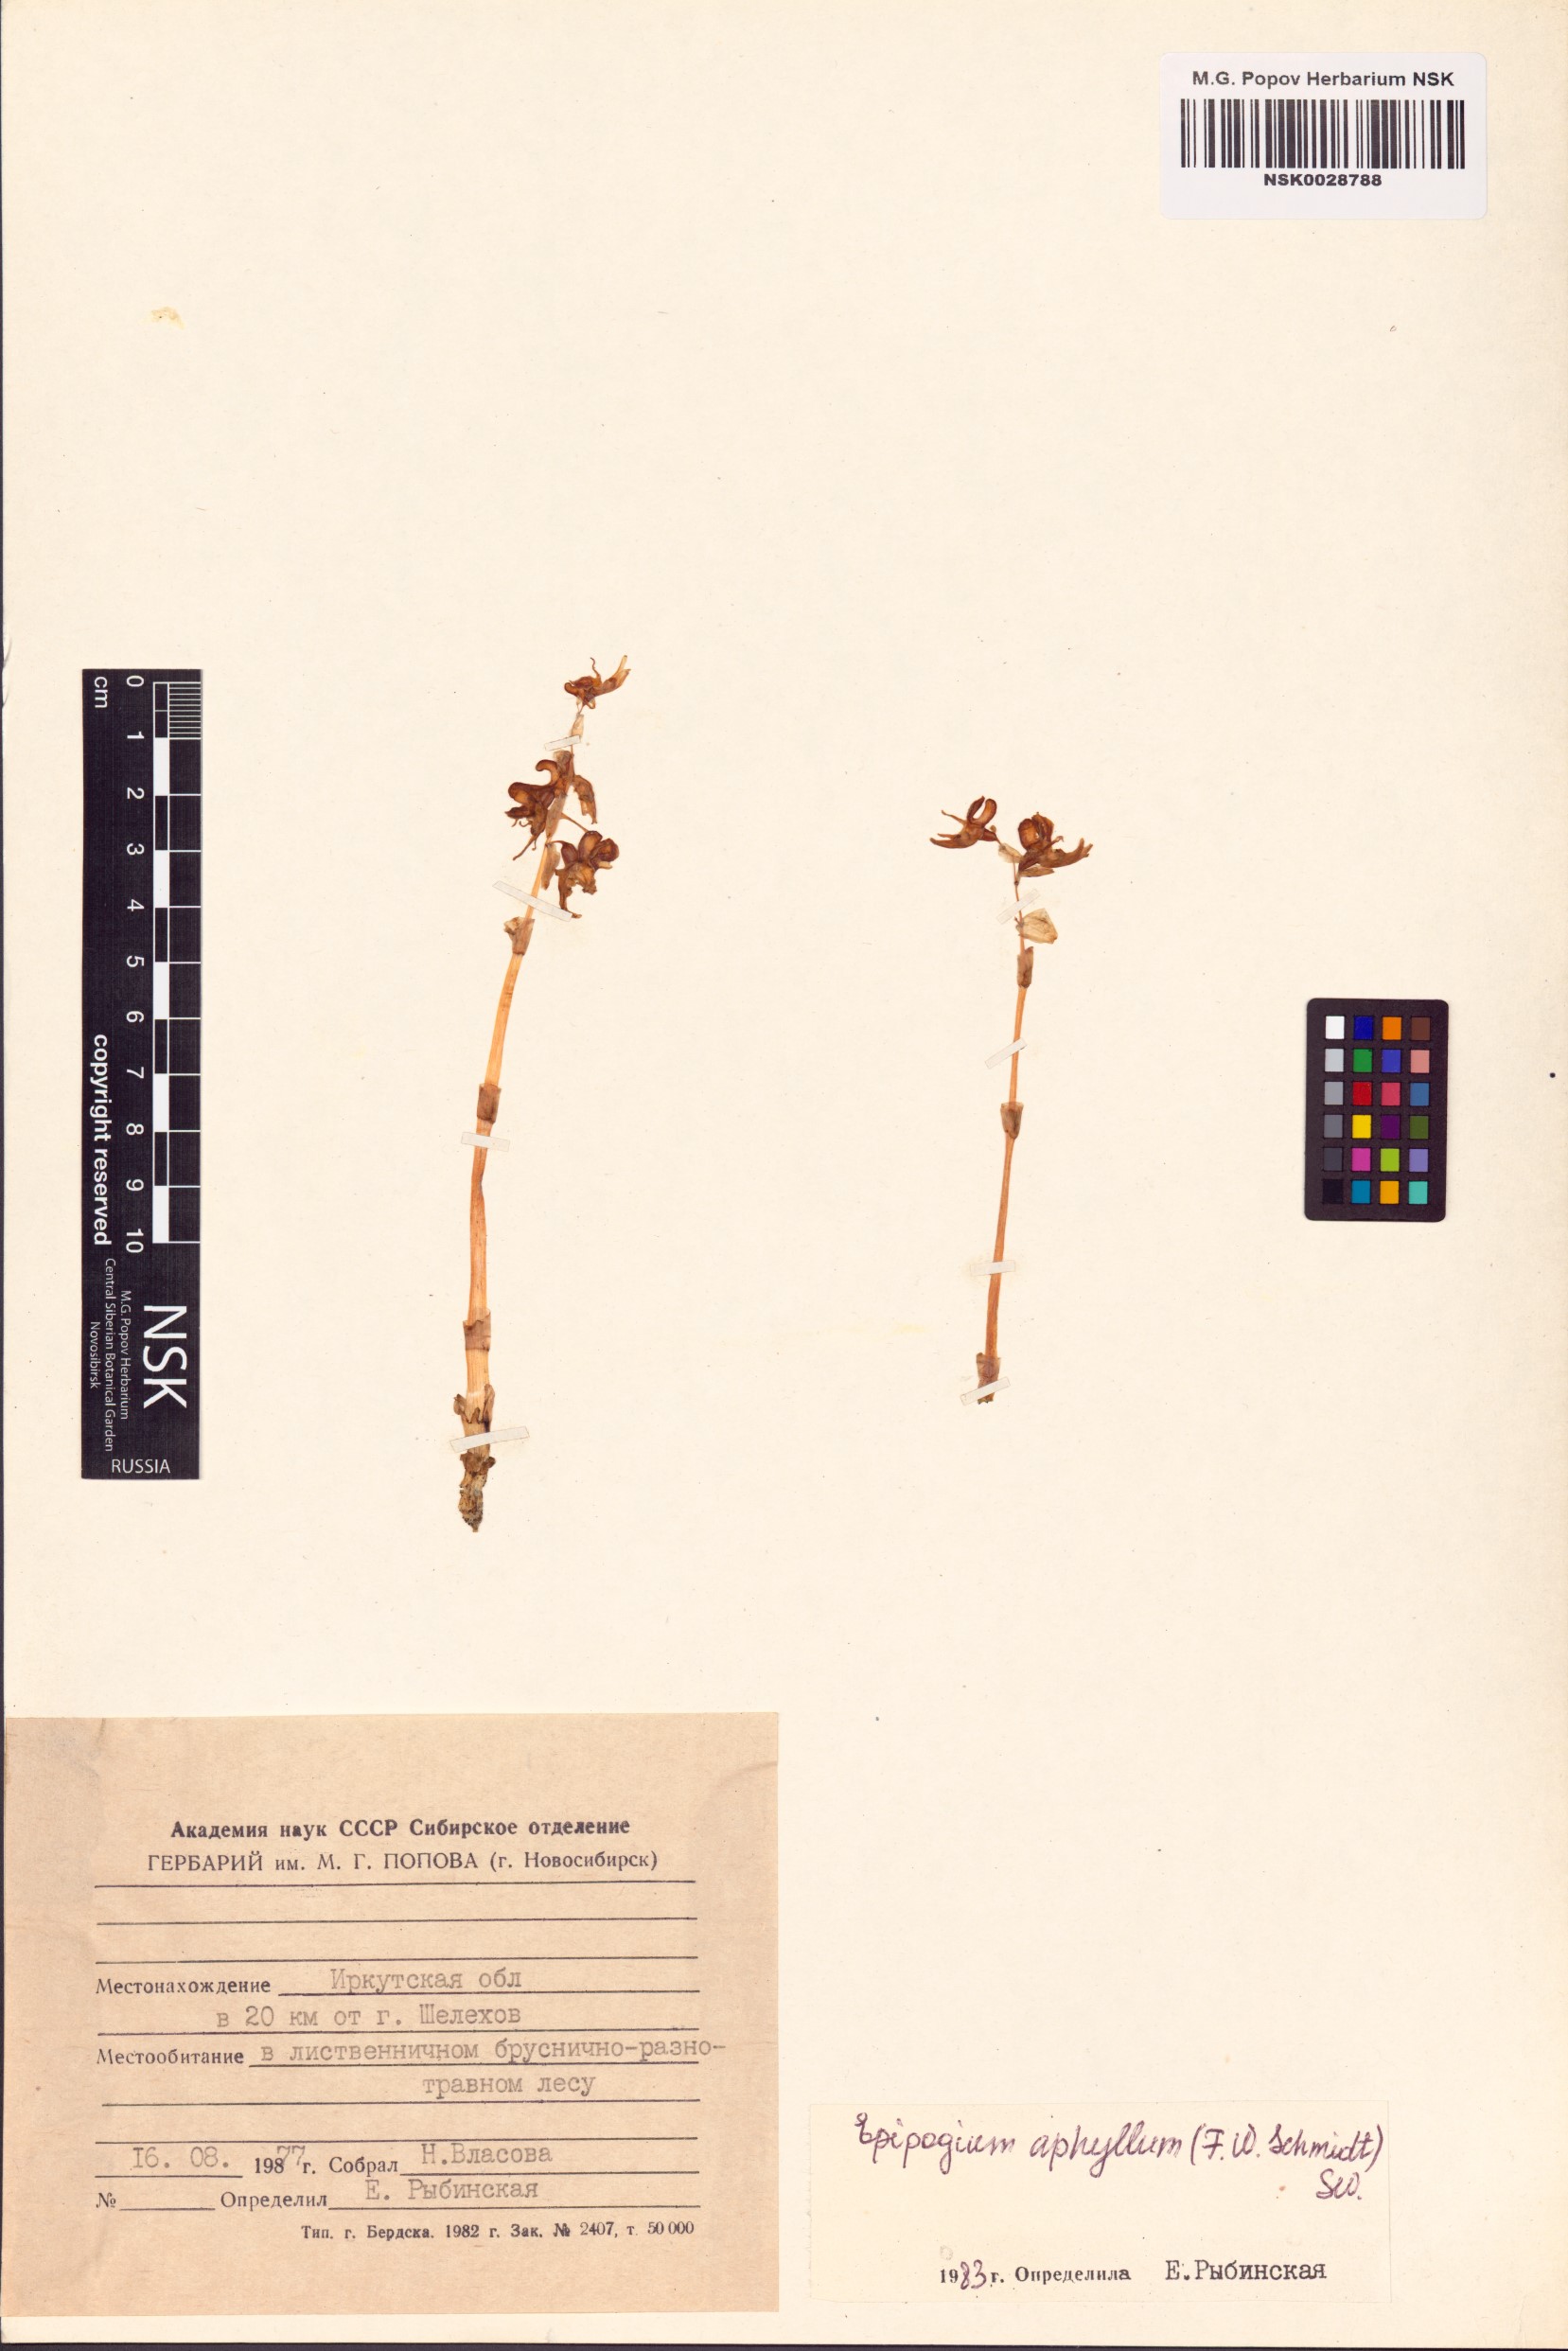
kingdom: Plantae
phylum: Tracheophyta
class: Liliopsida
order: Asparagales
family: Orchidaceae
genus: Epipogium
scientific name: Epipogium aphyllum
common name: Ghost orchid
